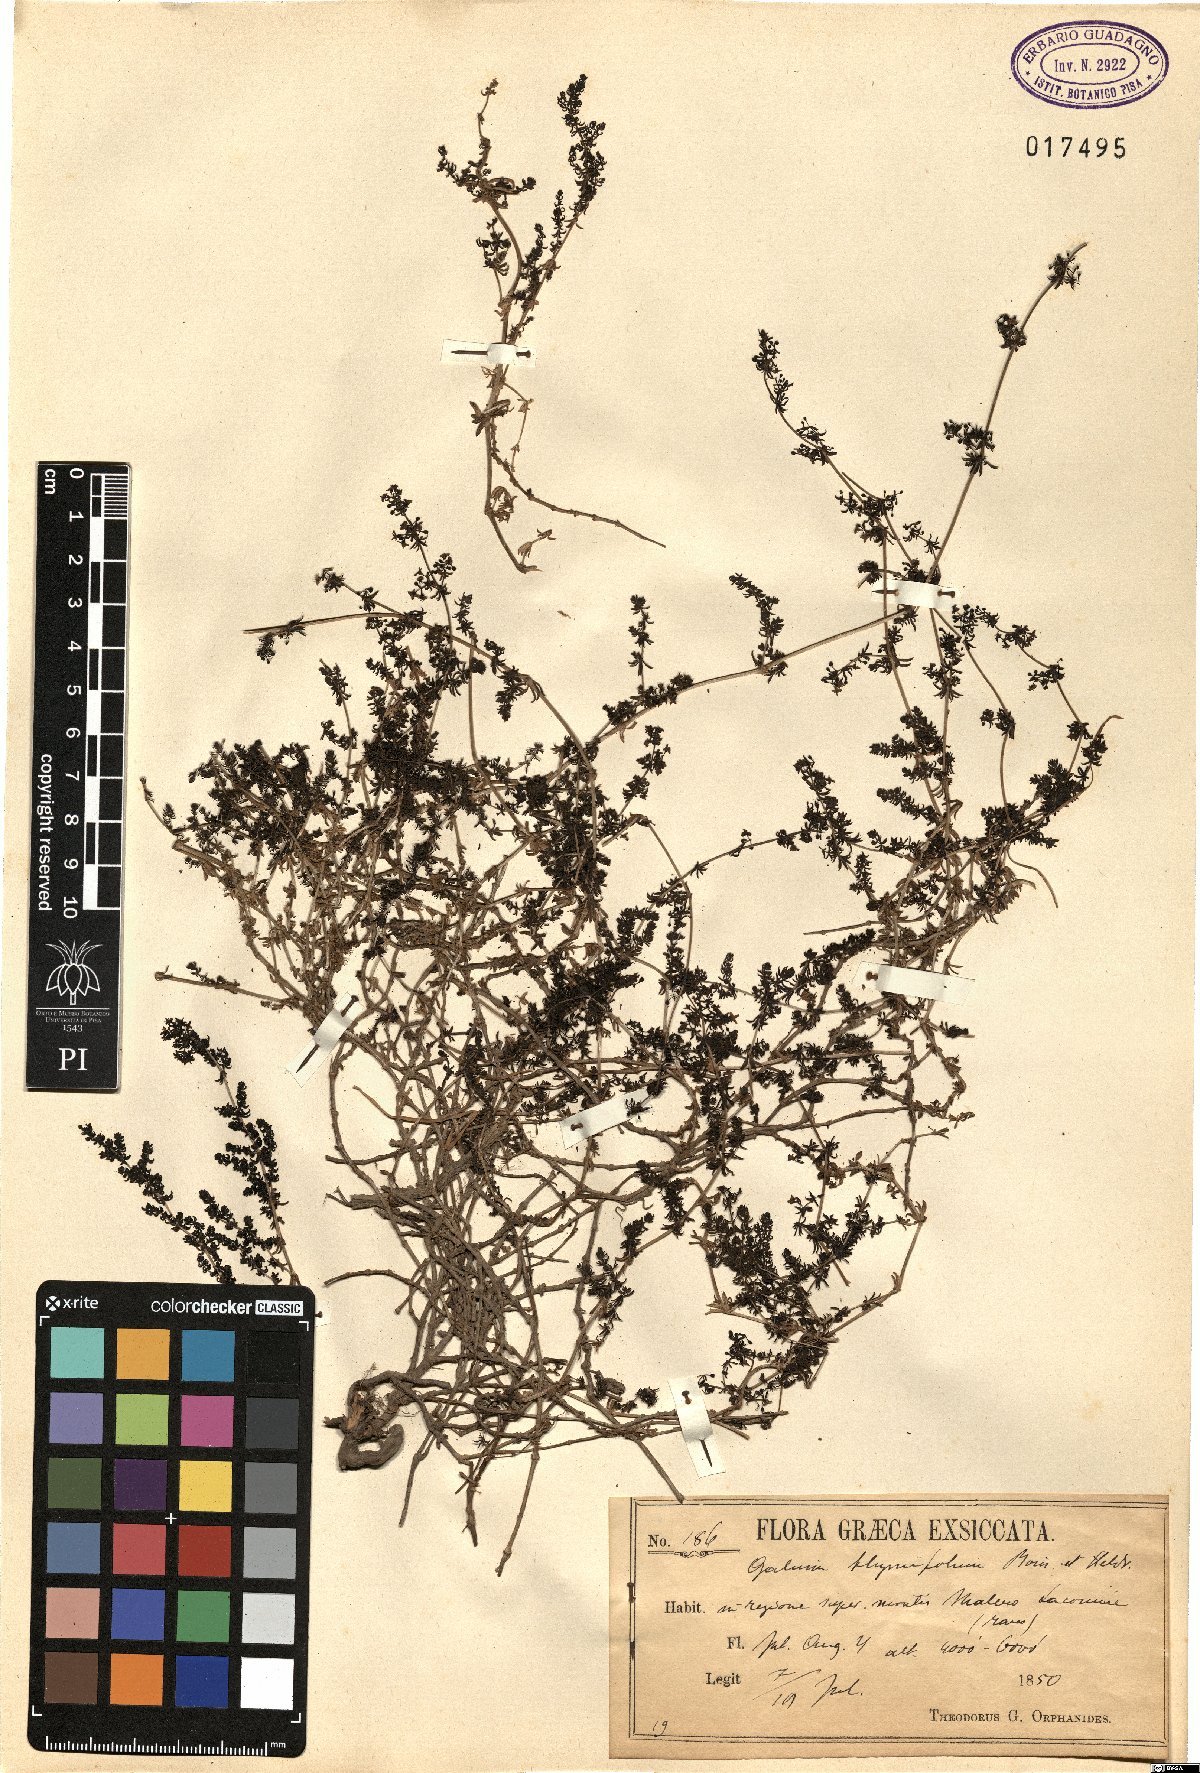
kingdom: Plantae
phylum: Tracheophyta
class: Magnoliopsida
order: Gentianales
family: Rubiaceae
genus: Galium
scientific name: Galium thymifolium
